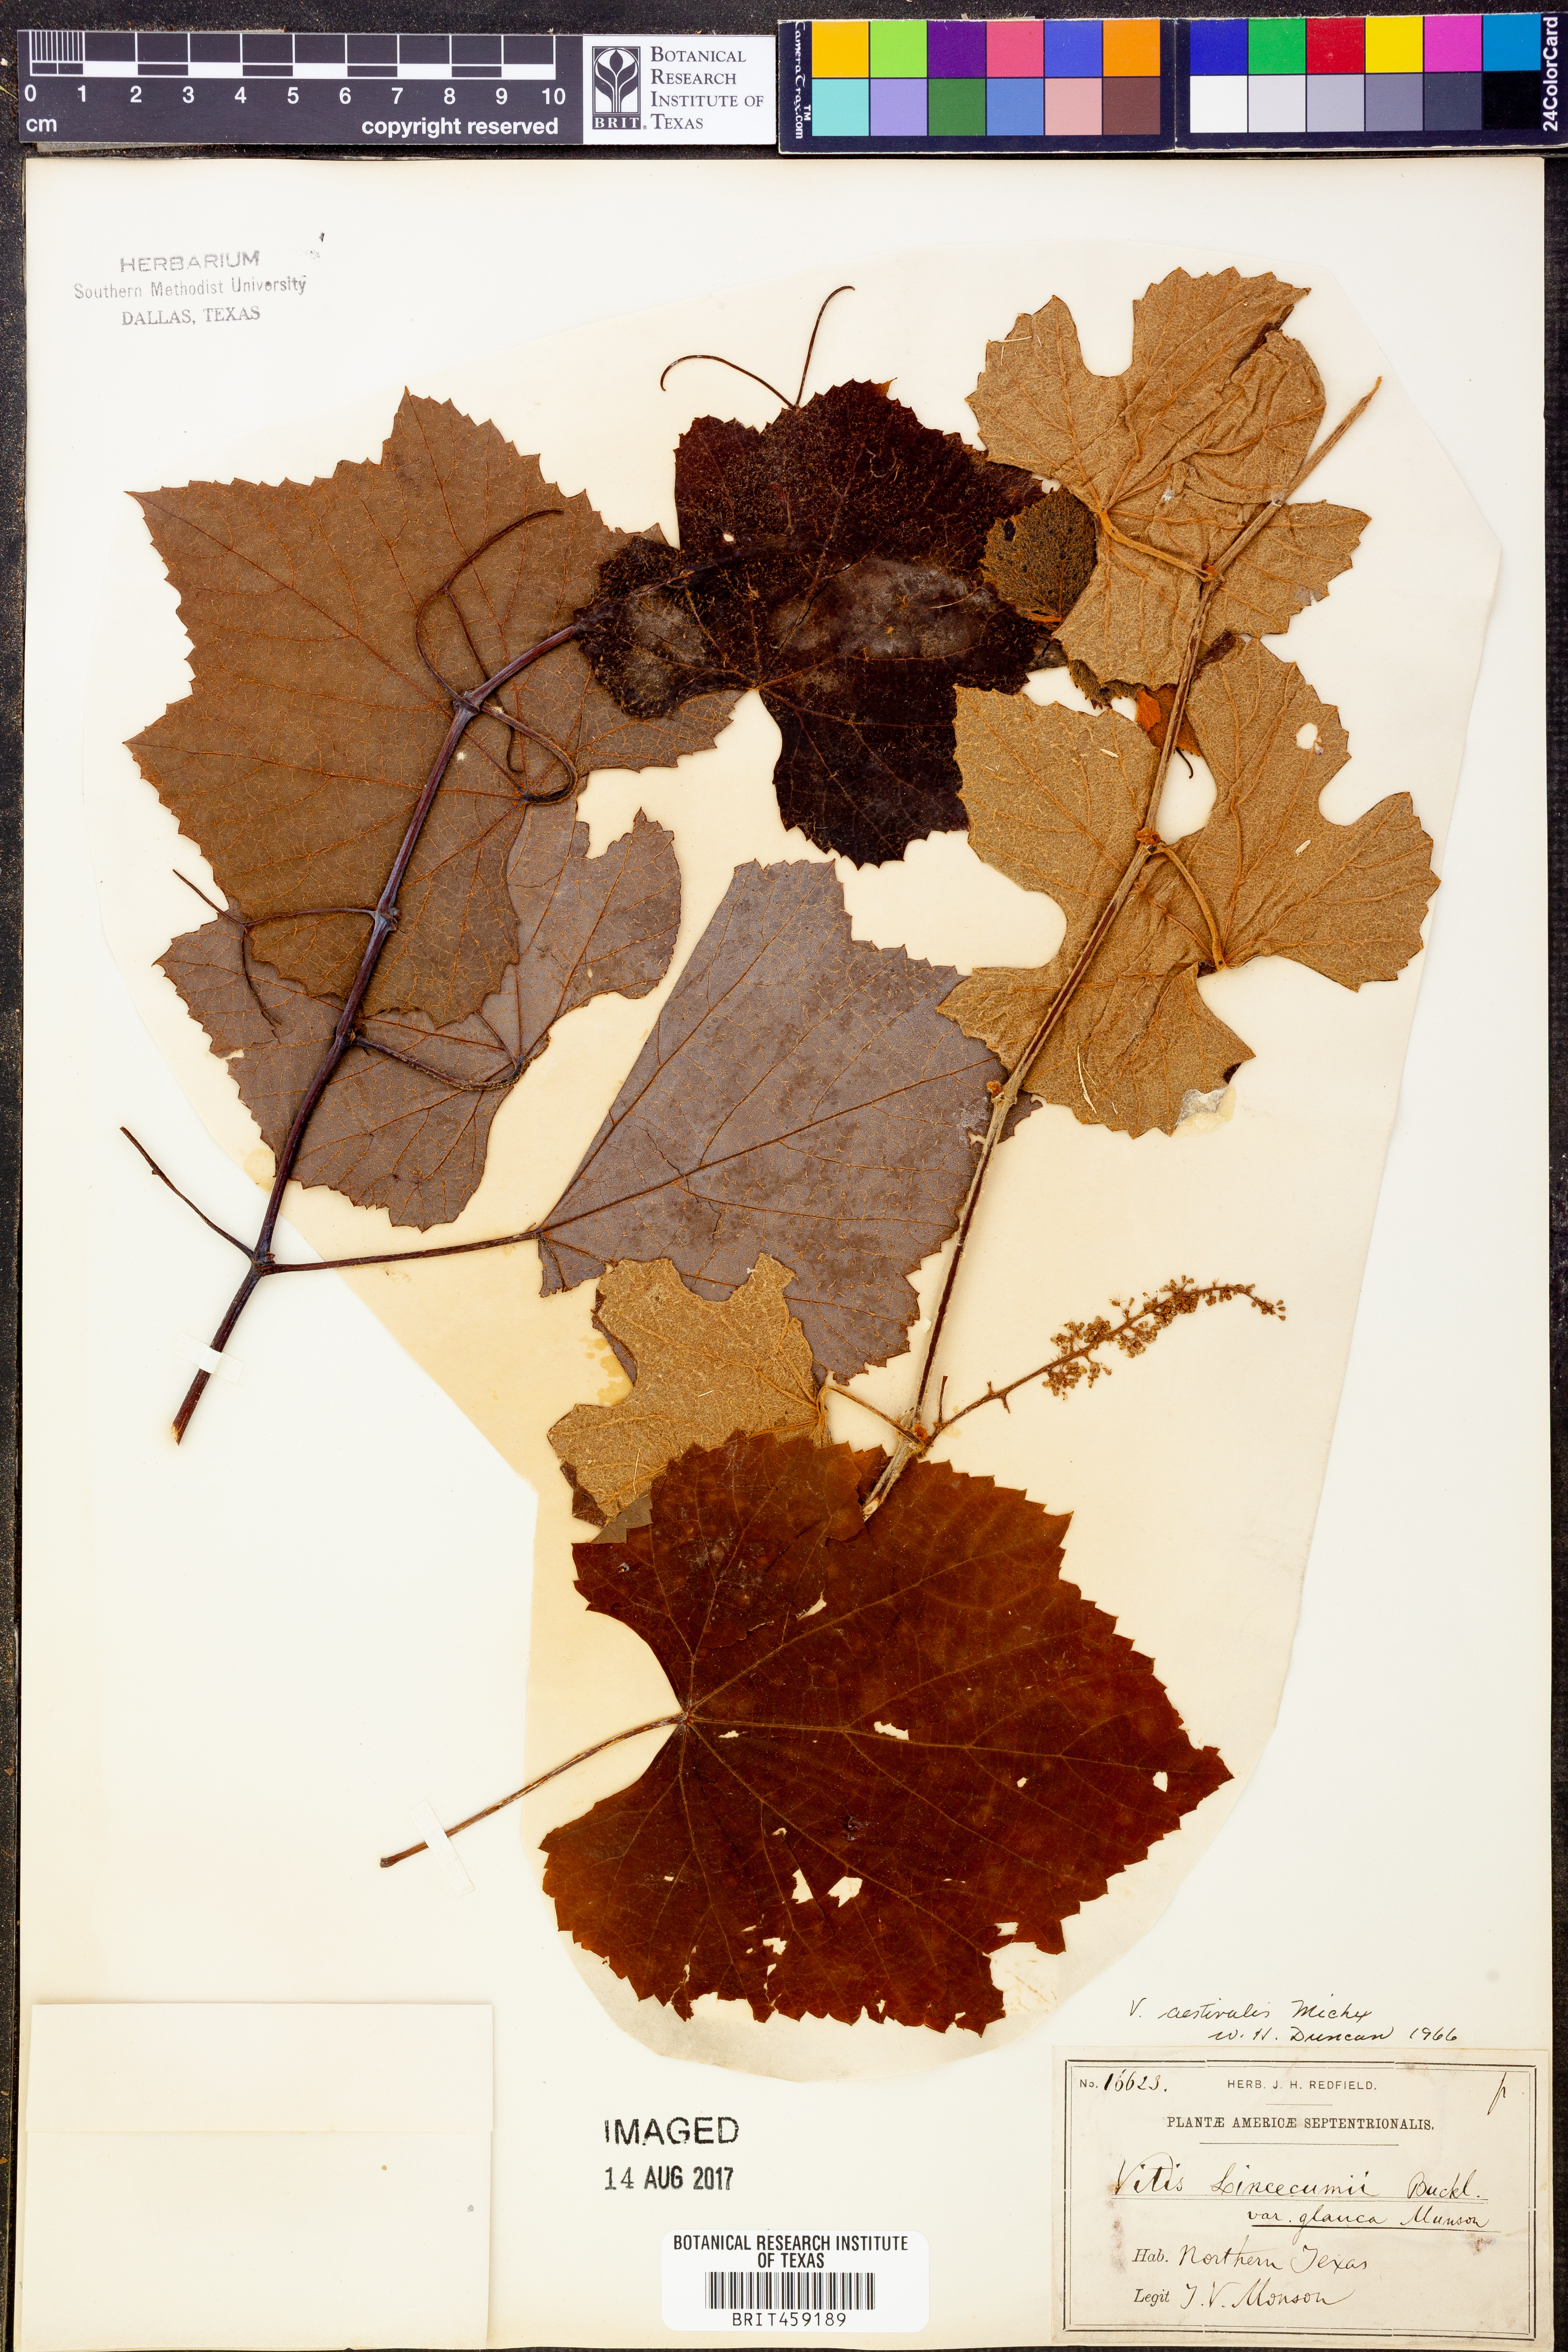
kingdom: Plantae
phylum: Tracheophyta
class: Magnoliopsida
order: Vitales
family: Vitaceae
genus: Vitis
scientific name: Vitis aestivalis
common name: Pigeon grape
